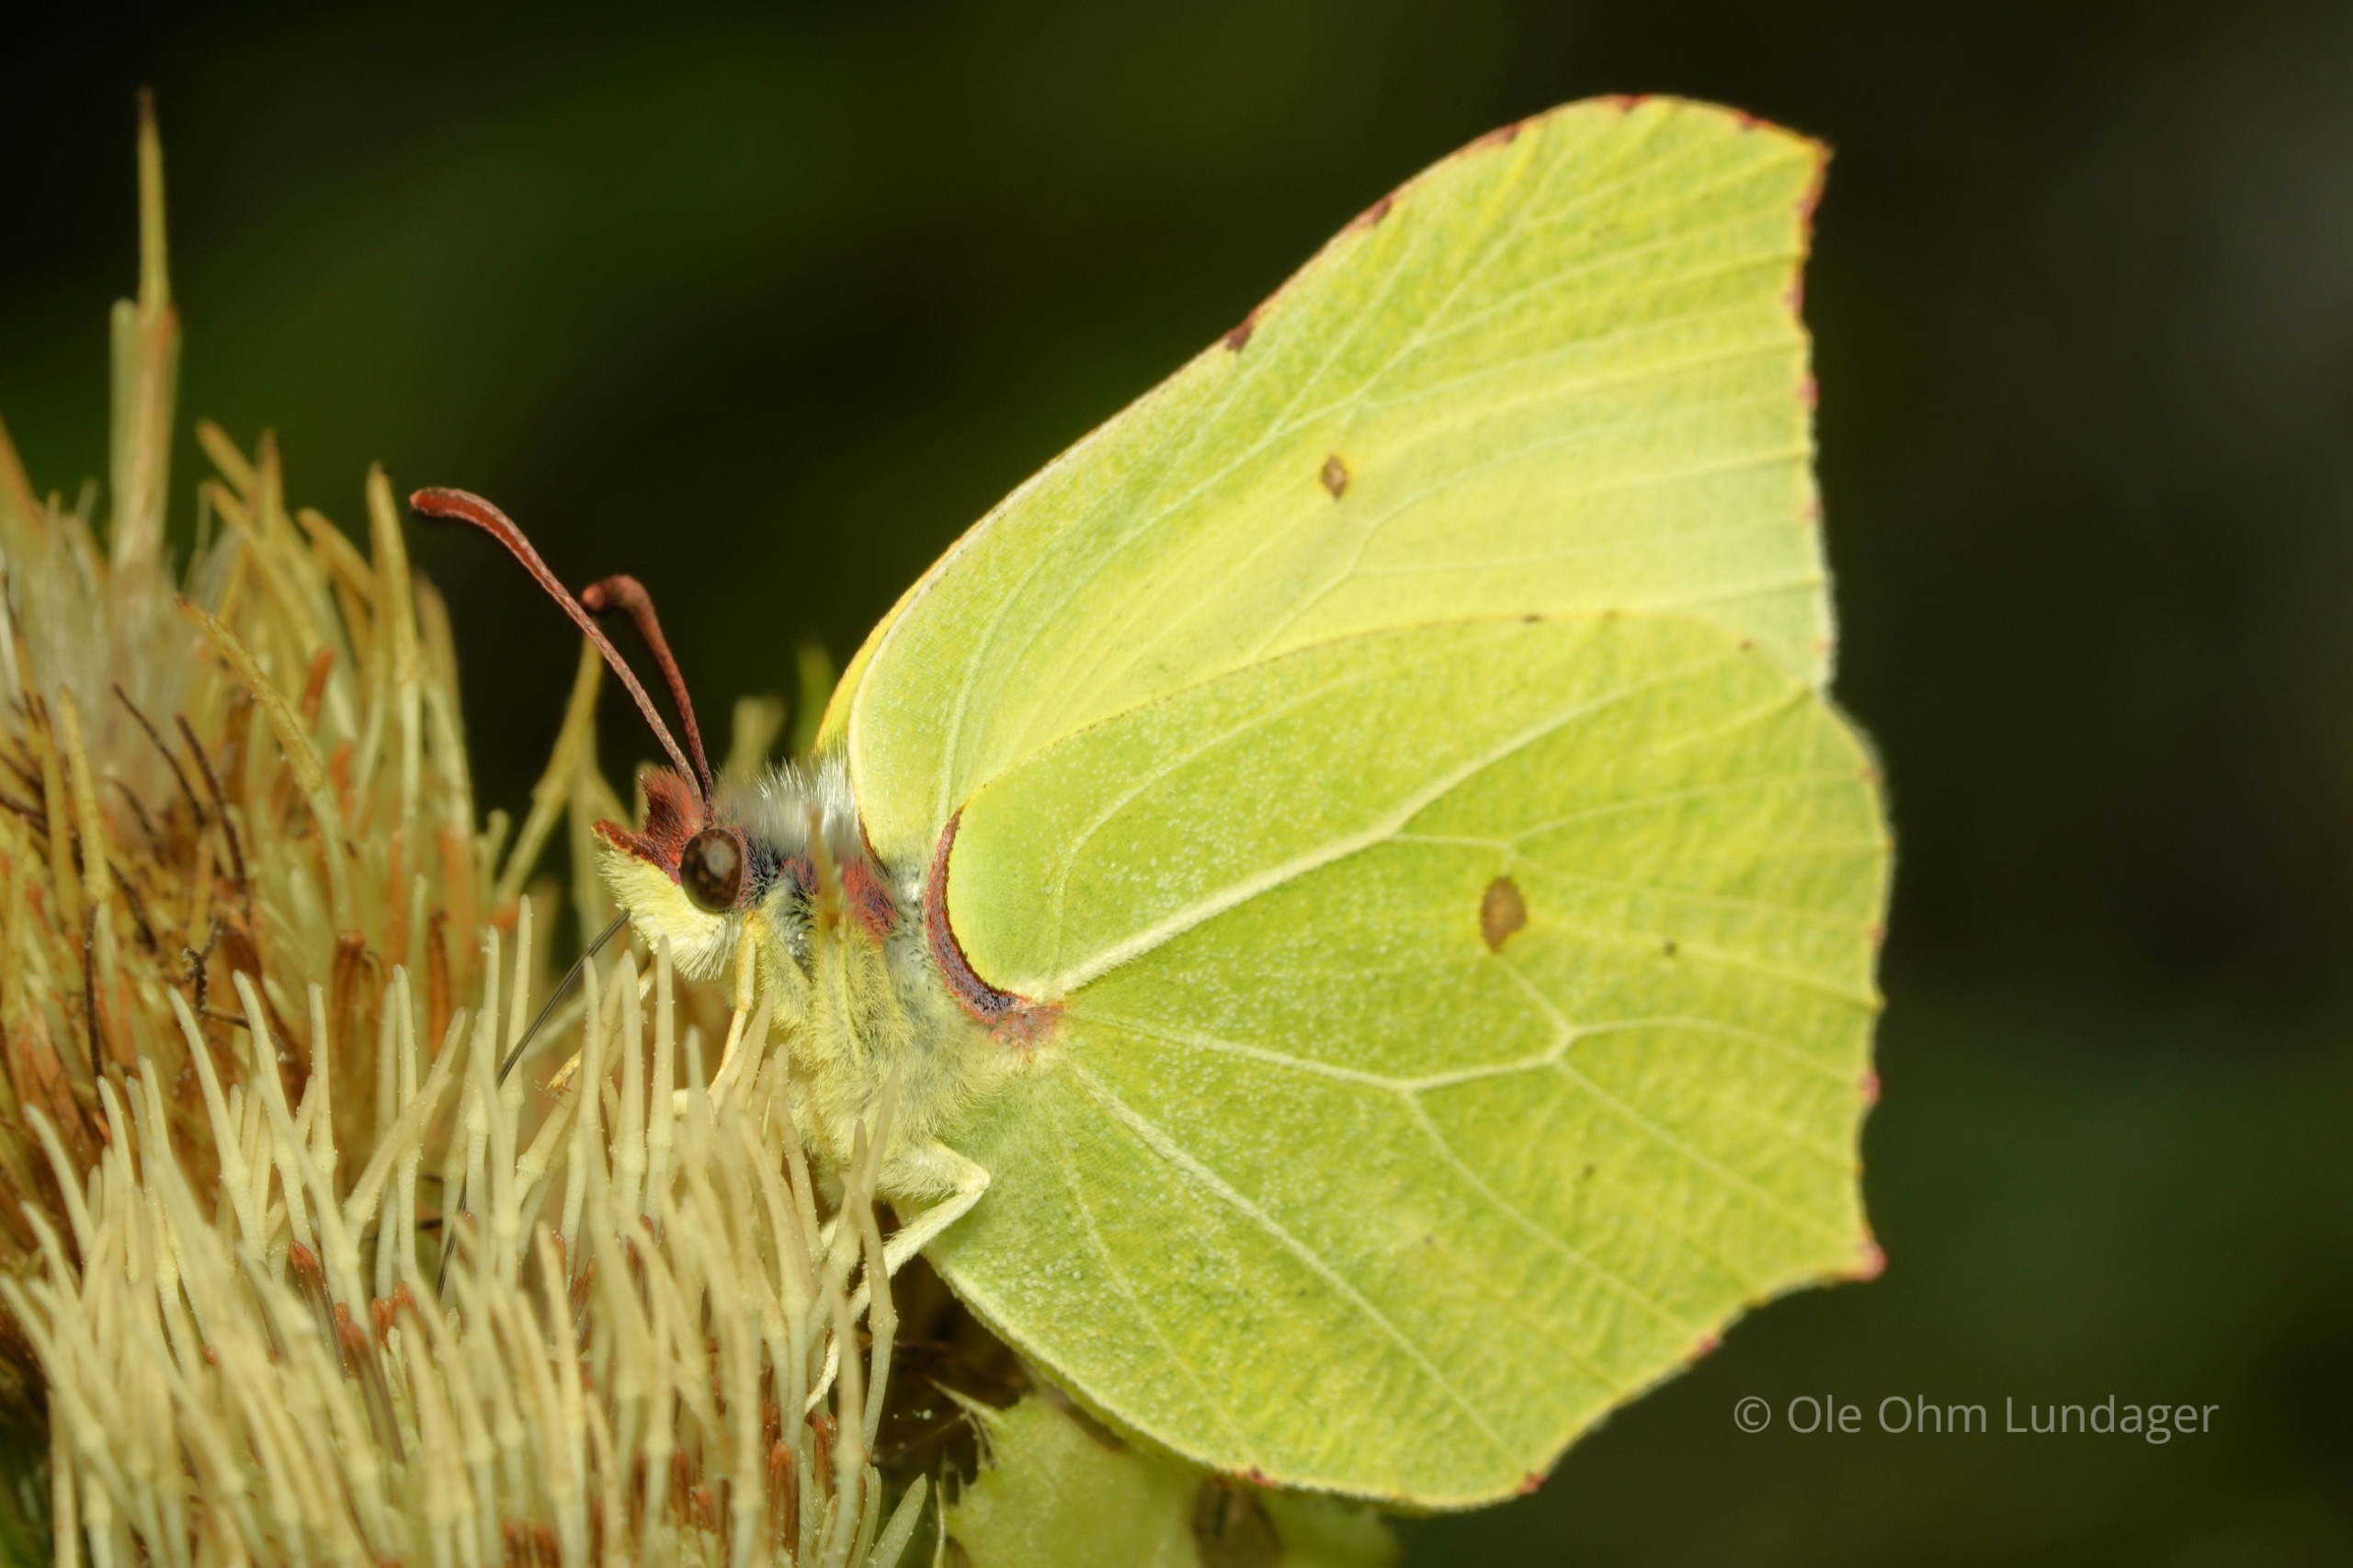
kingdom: Animalia
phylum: Arthropoda
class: Insecta
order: Lepidoptera
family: Pieridae
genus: Gonepteryx
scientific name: Gonepteryx rhamni
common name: Citronsommerfugl
